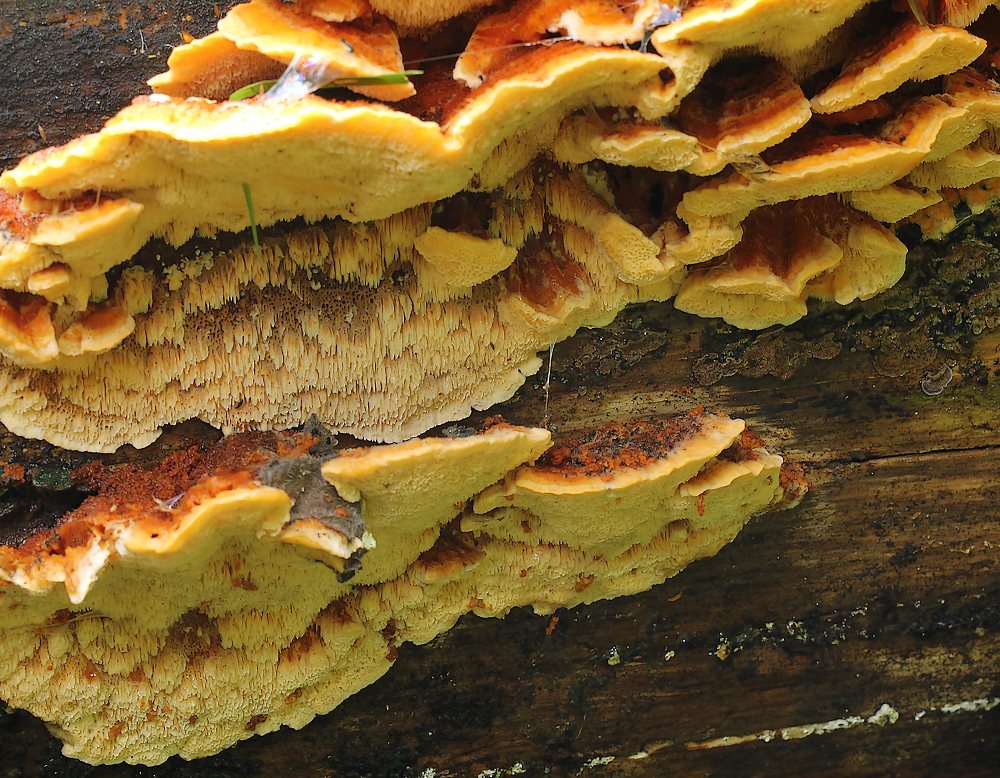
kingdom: Fungi
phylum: Basidiomycota
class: Agaricomycetes
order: Polyporales
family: Pycnoporellaceae
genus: Pycnoporellus
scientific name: Pycnoporellus fulgens
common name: flammeporesvamp
